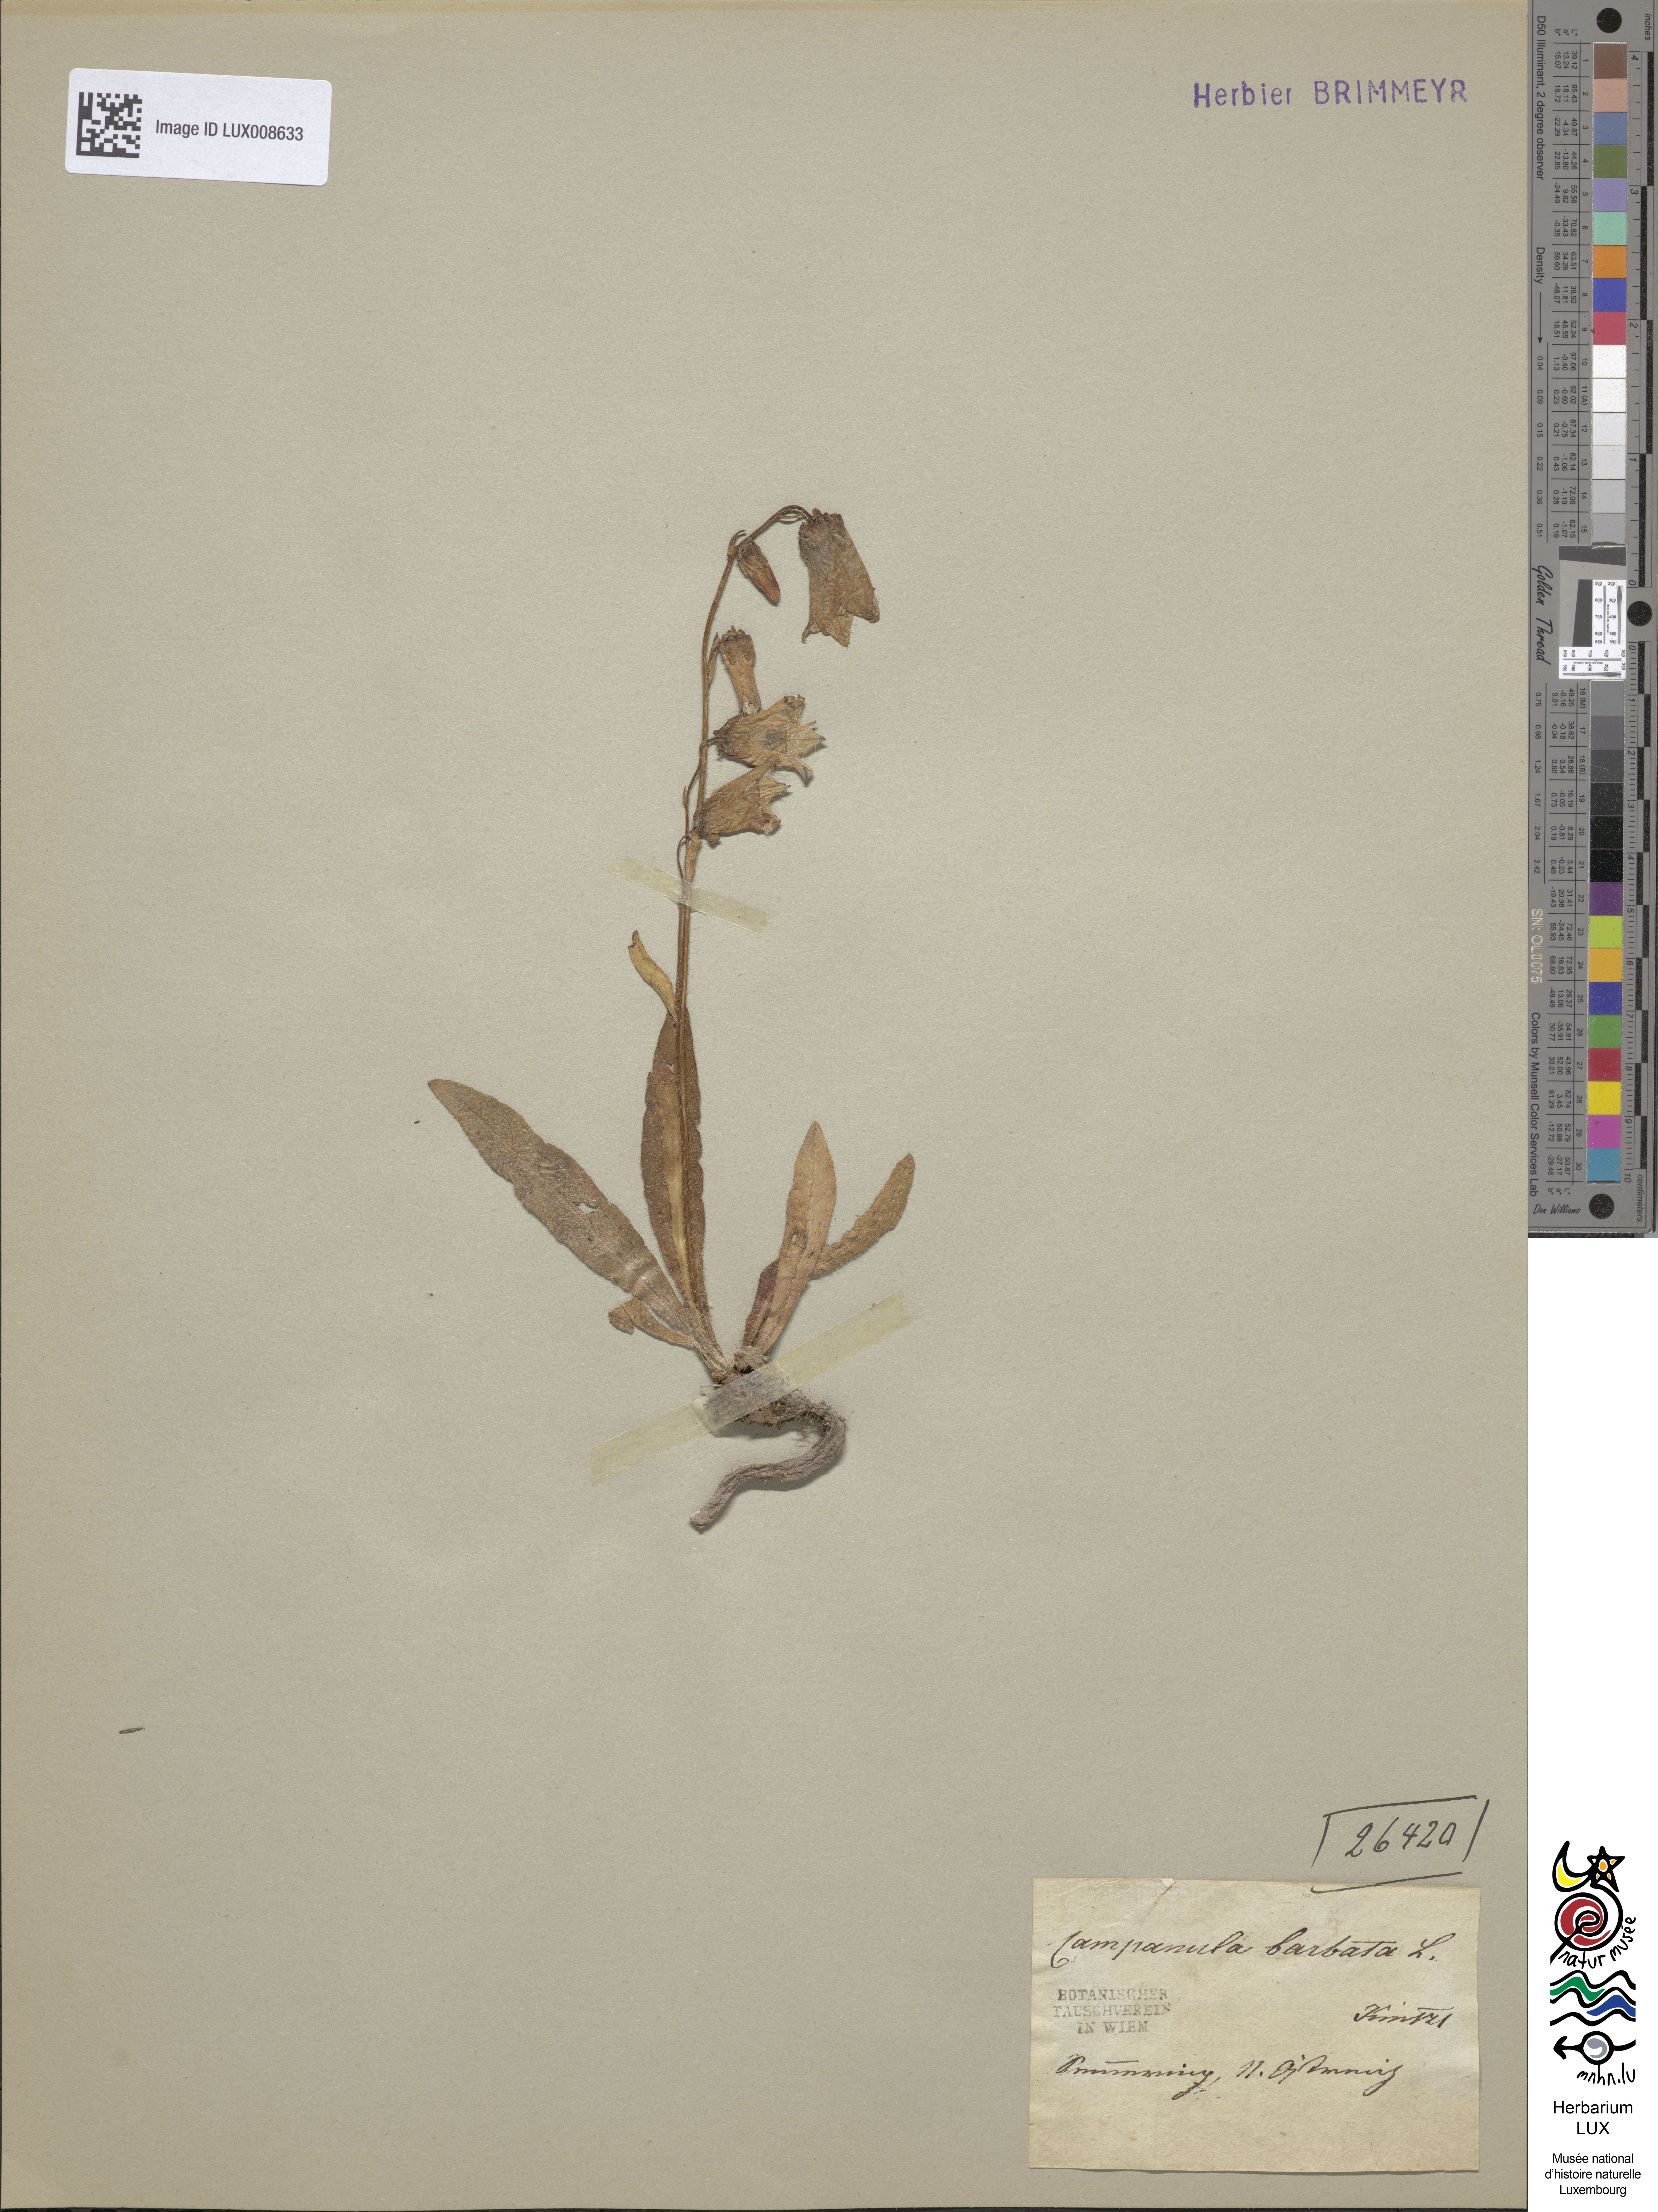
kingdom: Plantae
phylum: Tracheophyta
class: Magnoliopsida
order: Asterales
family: Campanulaceae
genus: Campanula
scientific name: Campanula barbata
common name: Bearded bellflower
